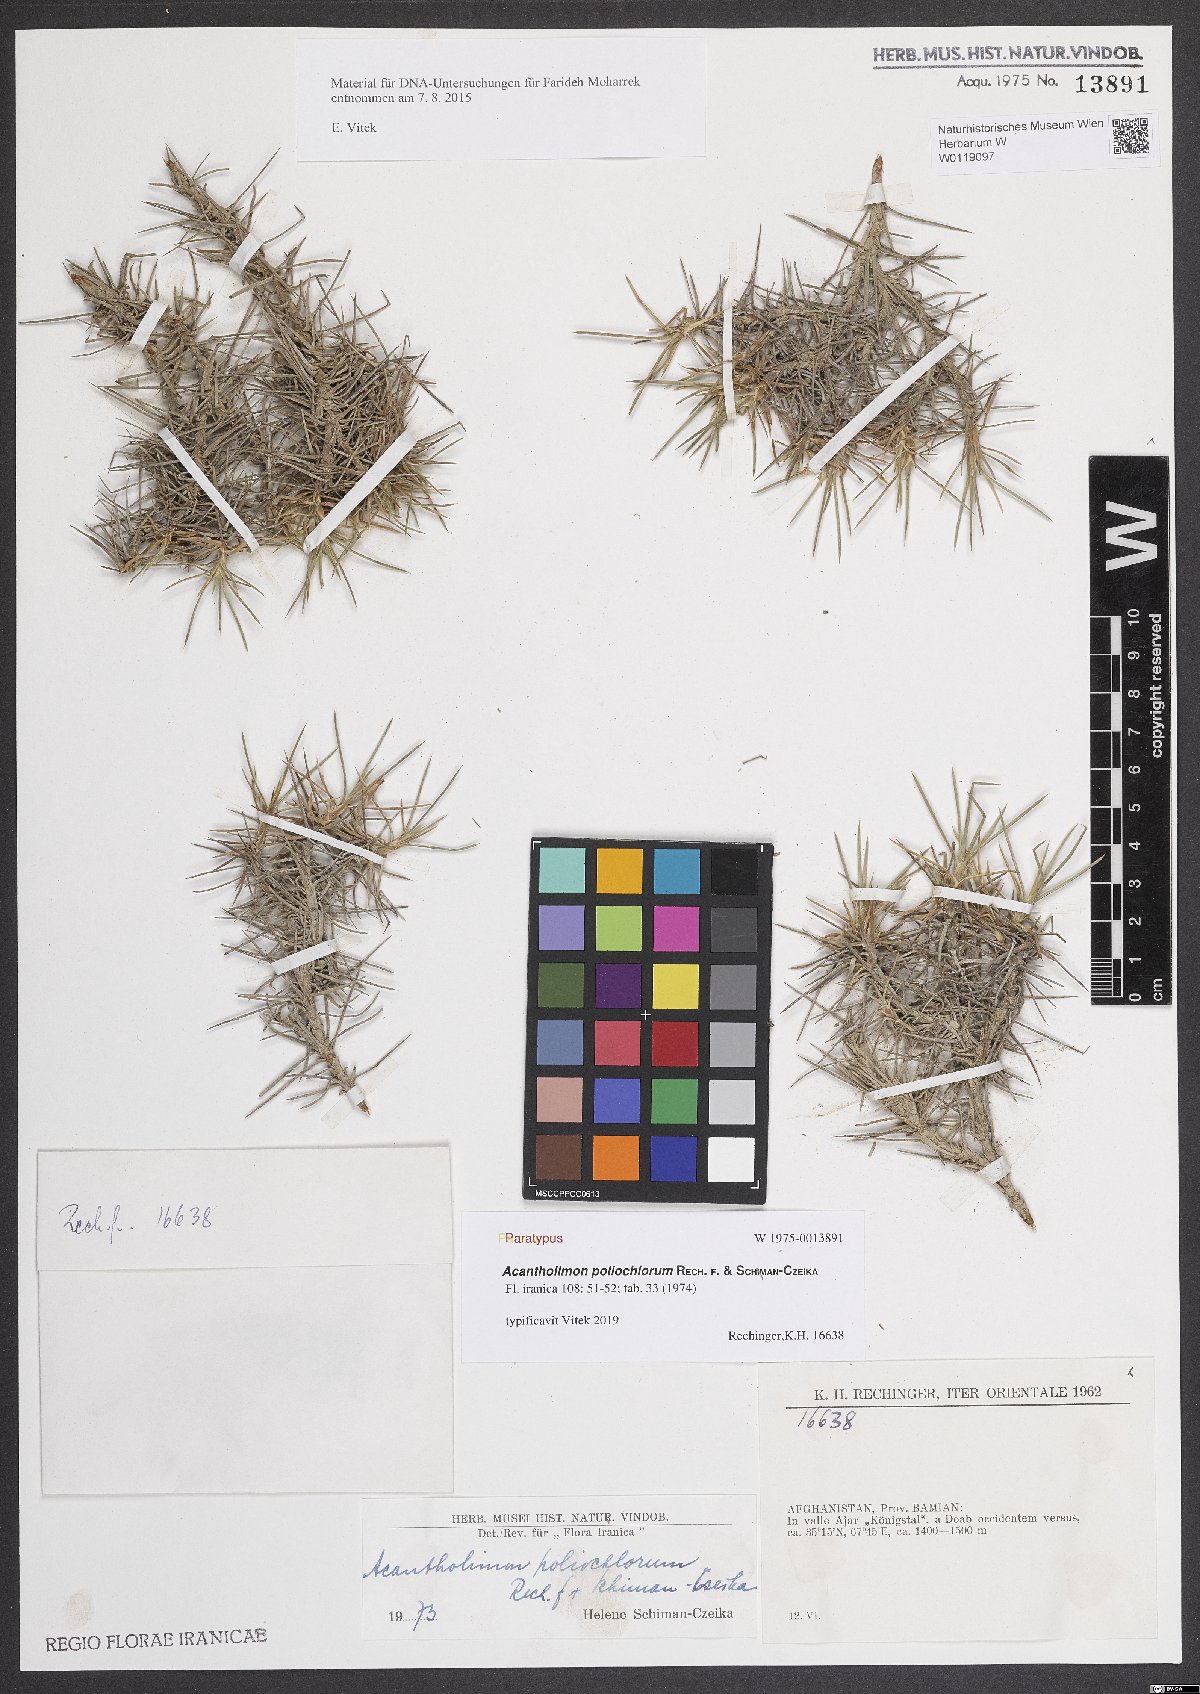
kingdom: Plantae
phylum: Tracheophyta
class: Magnoliopsida
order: Caryophyllales
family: Plumbaginaceae
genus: Acantholimon
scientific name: Acantholimon poliochlorum
